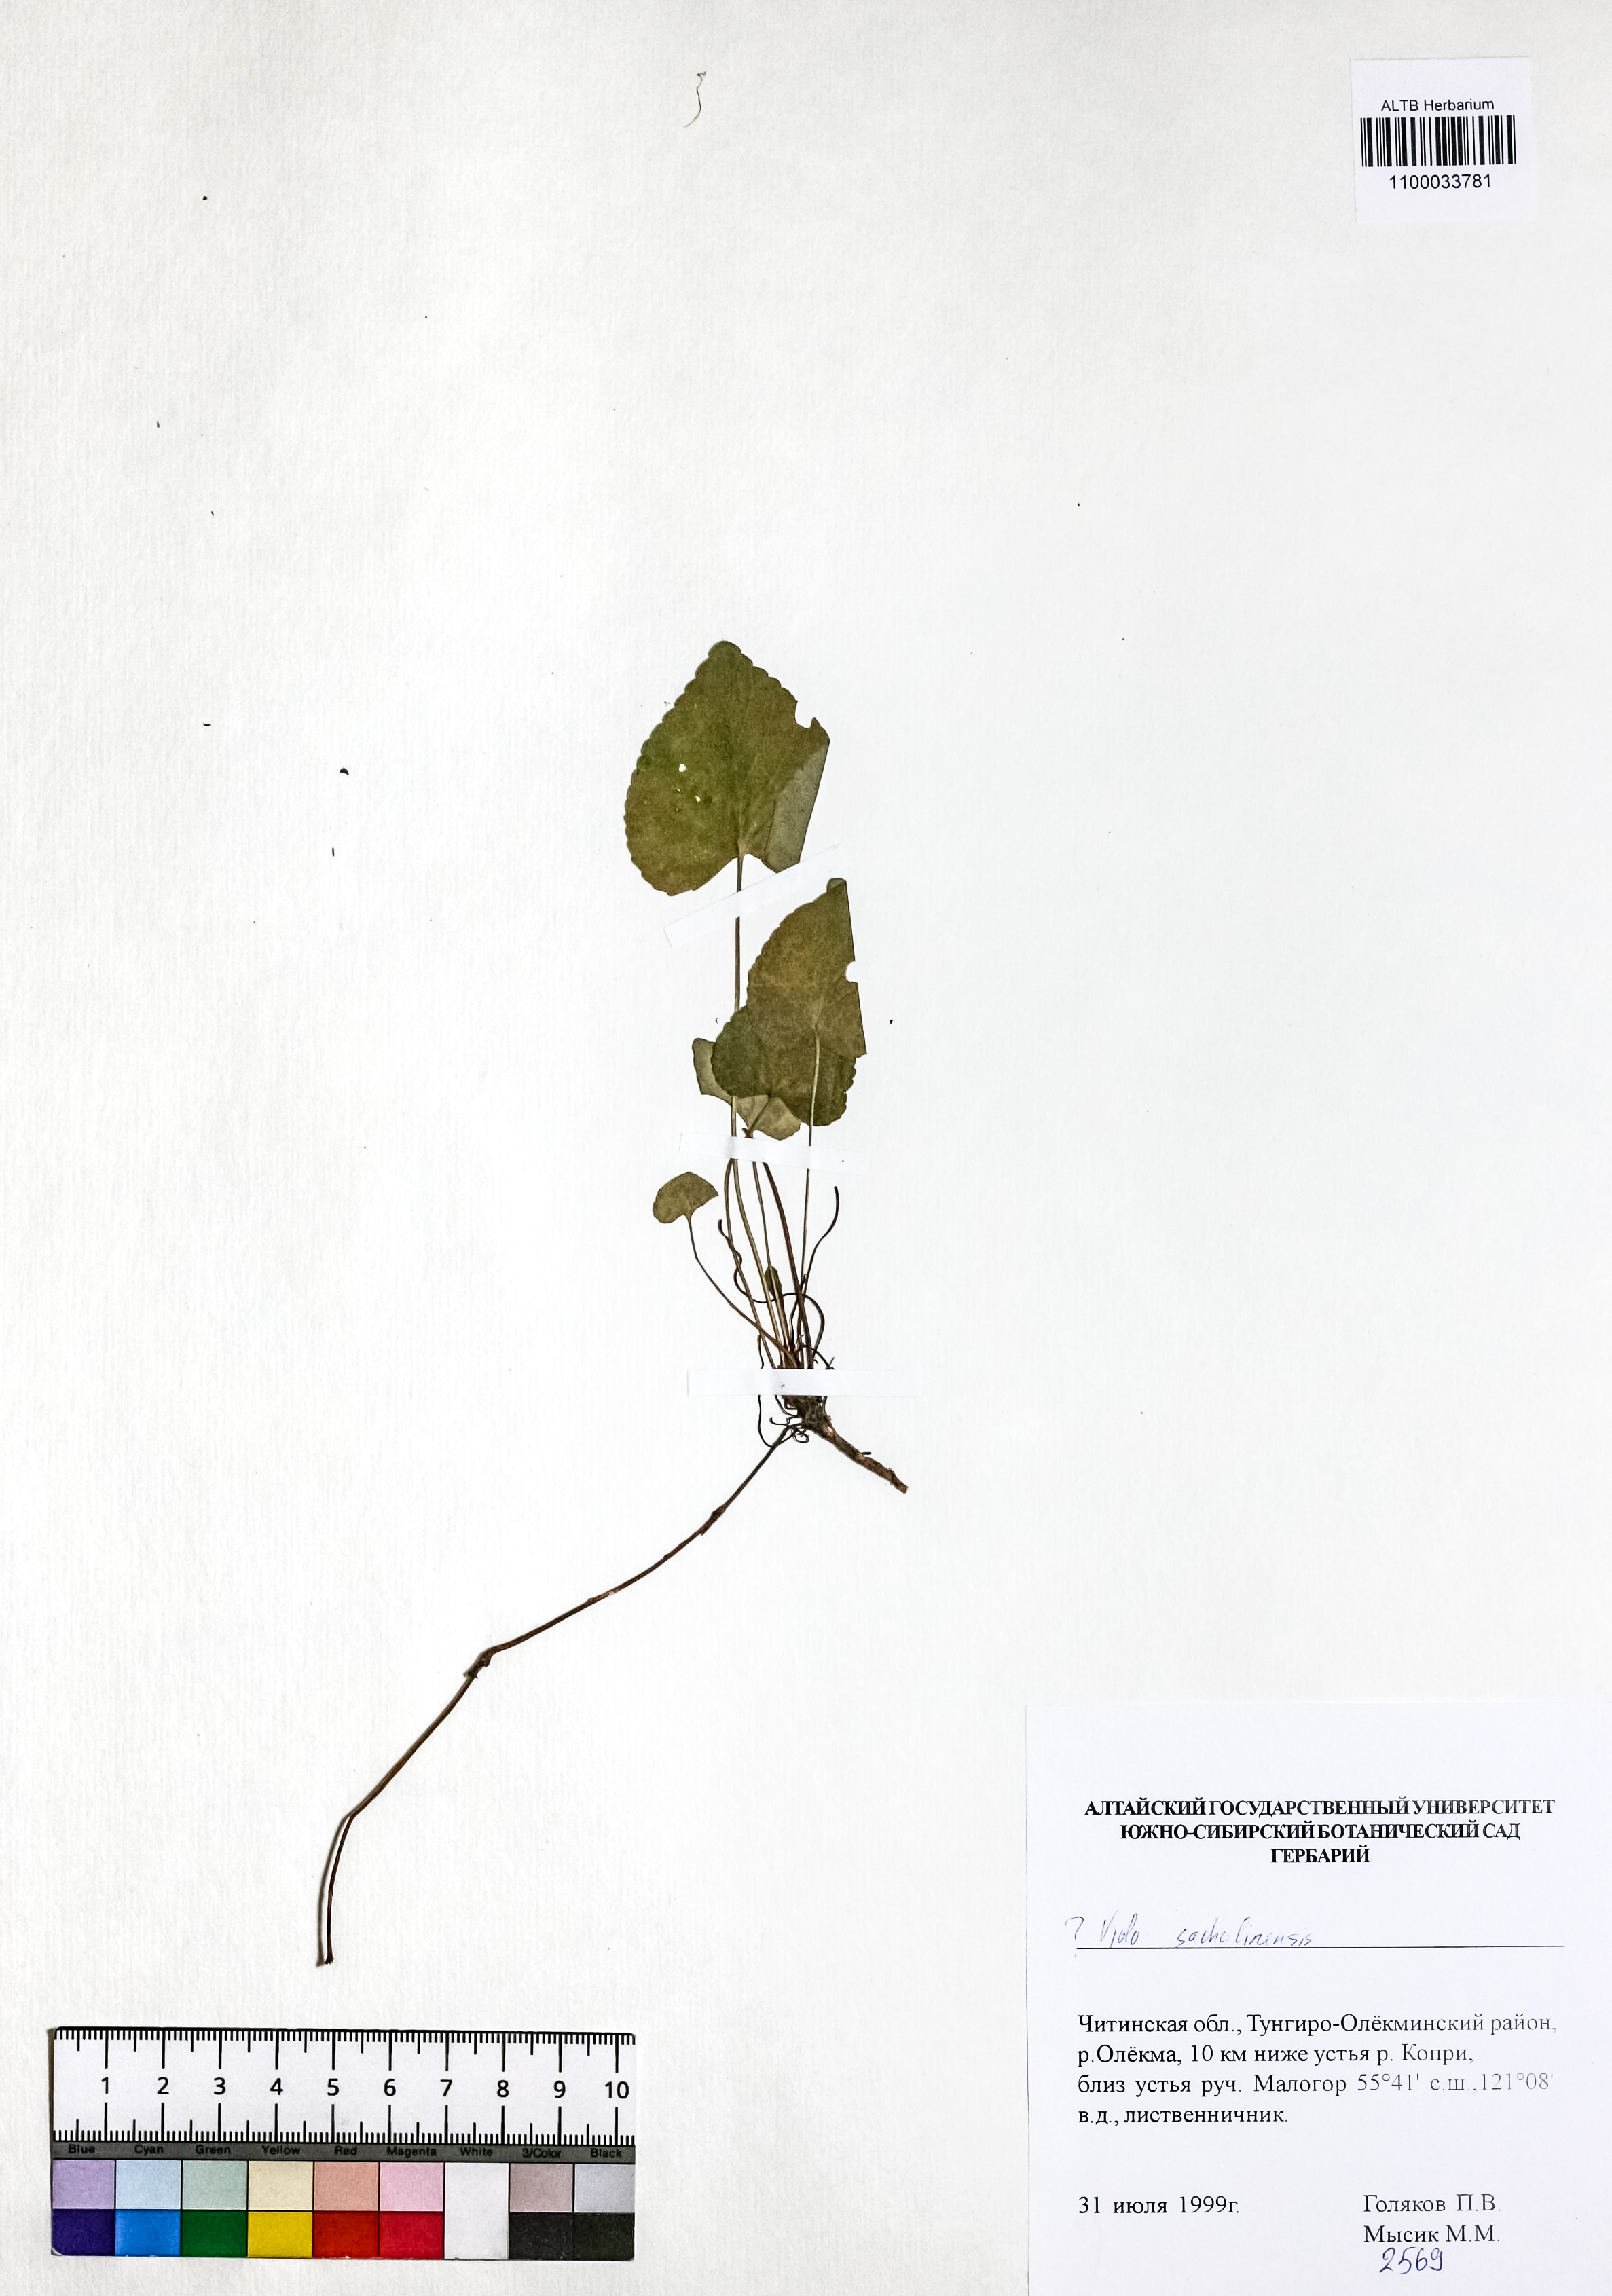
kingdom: Plantae
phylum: Tracheophyta
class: Magnoliopsida
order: Malpighiales
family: Violaceae
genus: Viola
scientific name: Viola sacchalinensis
